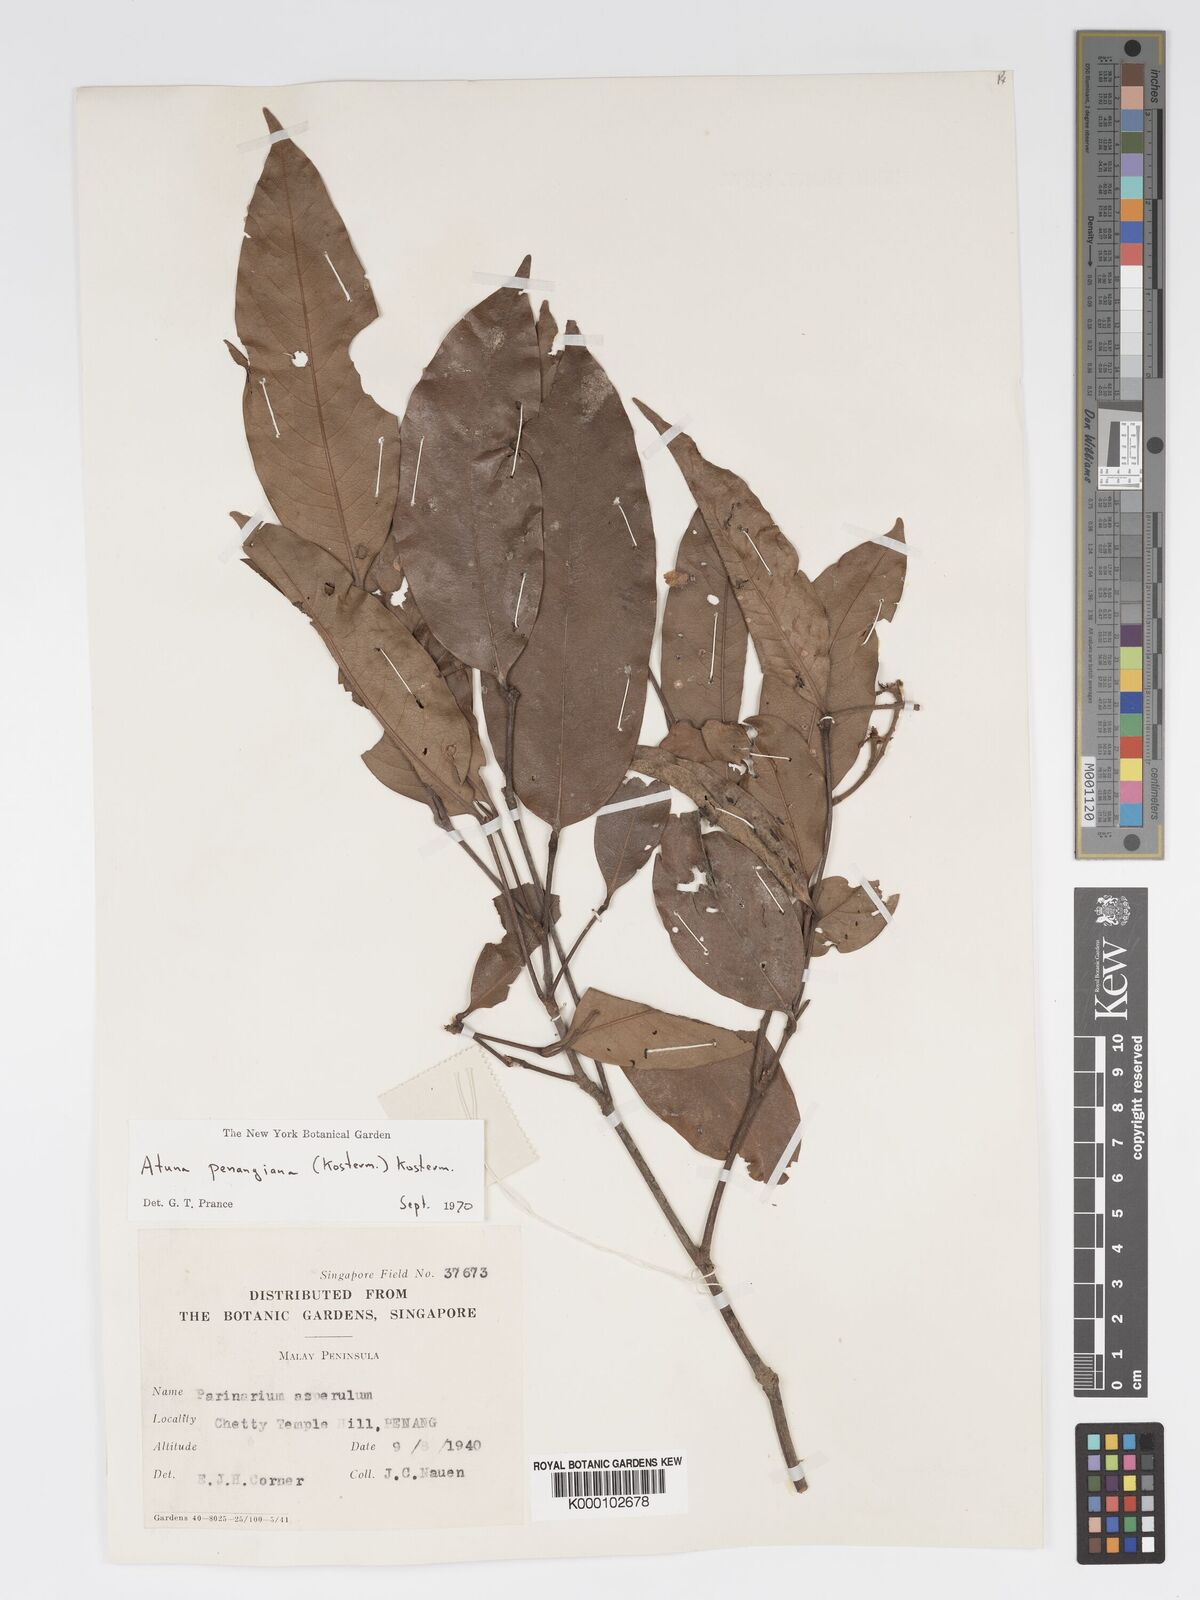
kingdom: Plantae
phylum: Tracheophyta
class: Magnoliopsida
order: Malpighiales
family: Chrysobalanaceae
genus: Atuna
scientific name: Atuna penangiana
